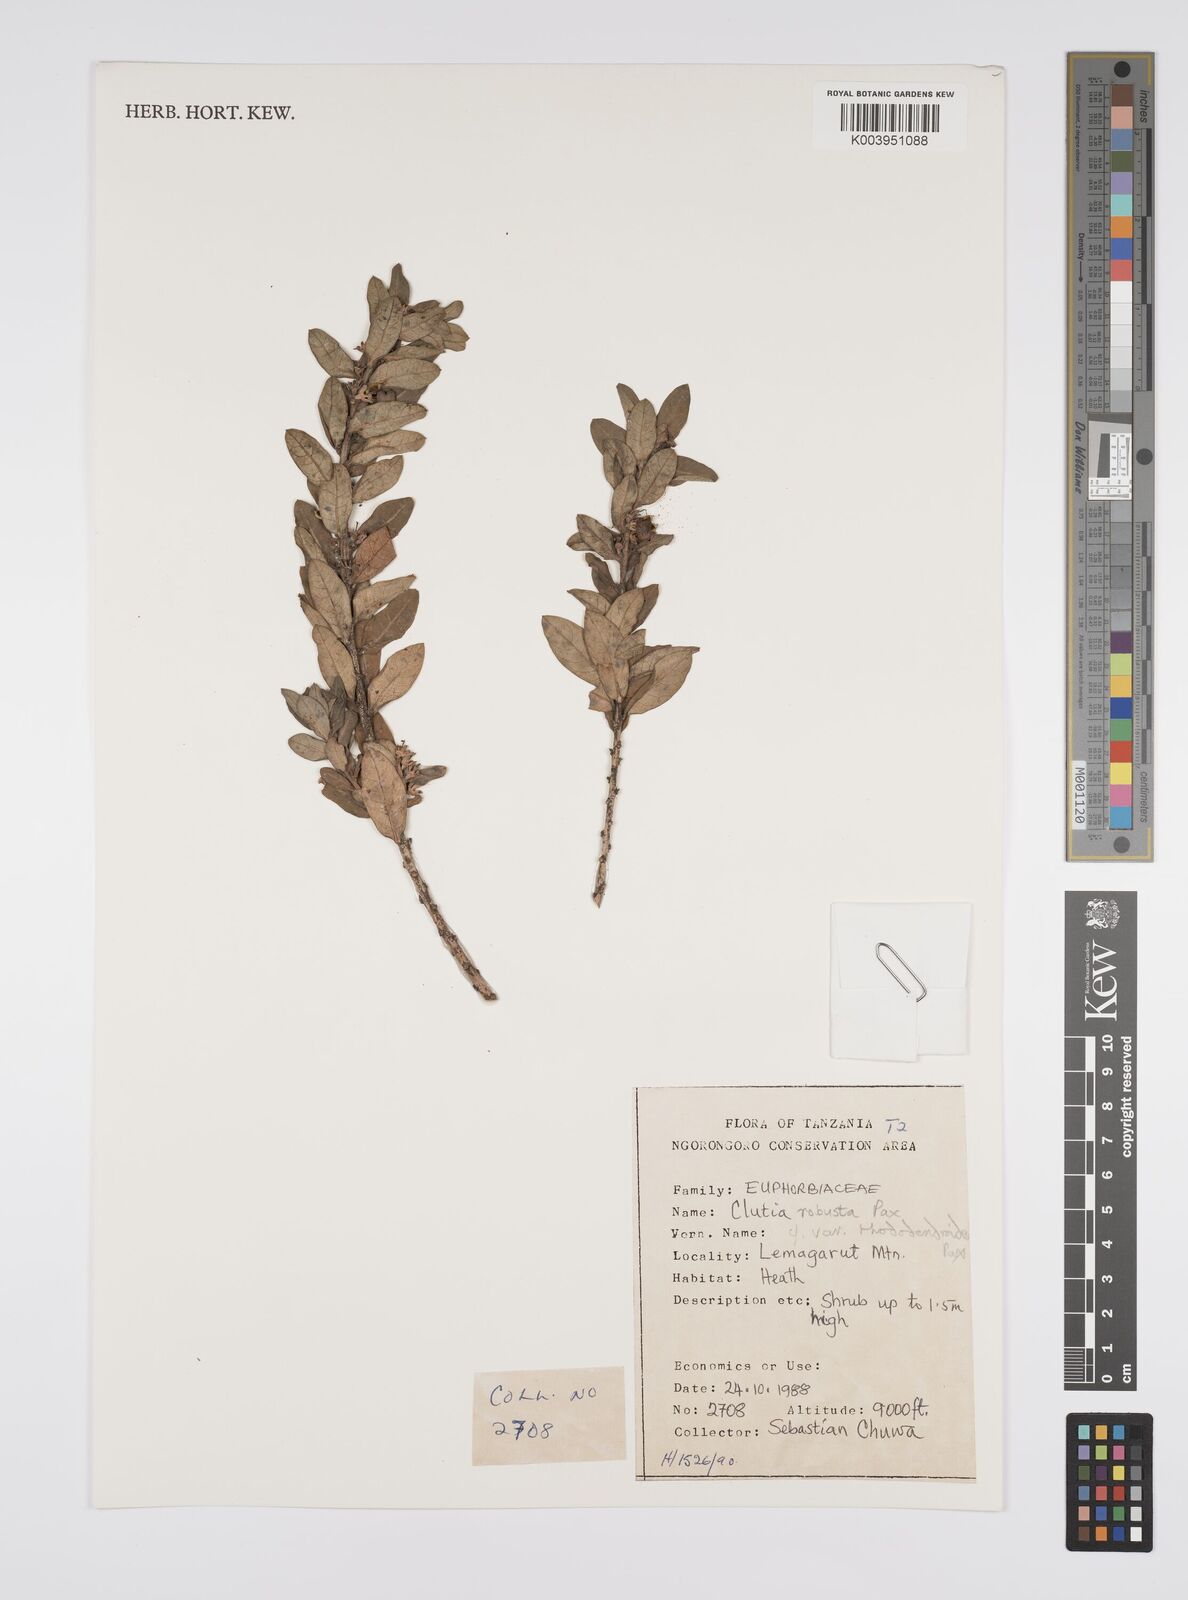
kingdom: Plantae
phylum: Tracheophyta
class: Magnoliopsida
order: Malpighiales
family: Peraceae
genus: Clutia
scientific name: Clutia kilimandscharica
